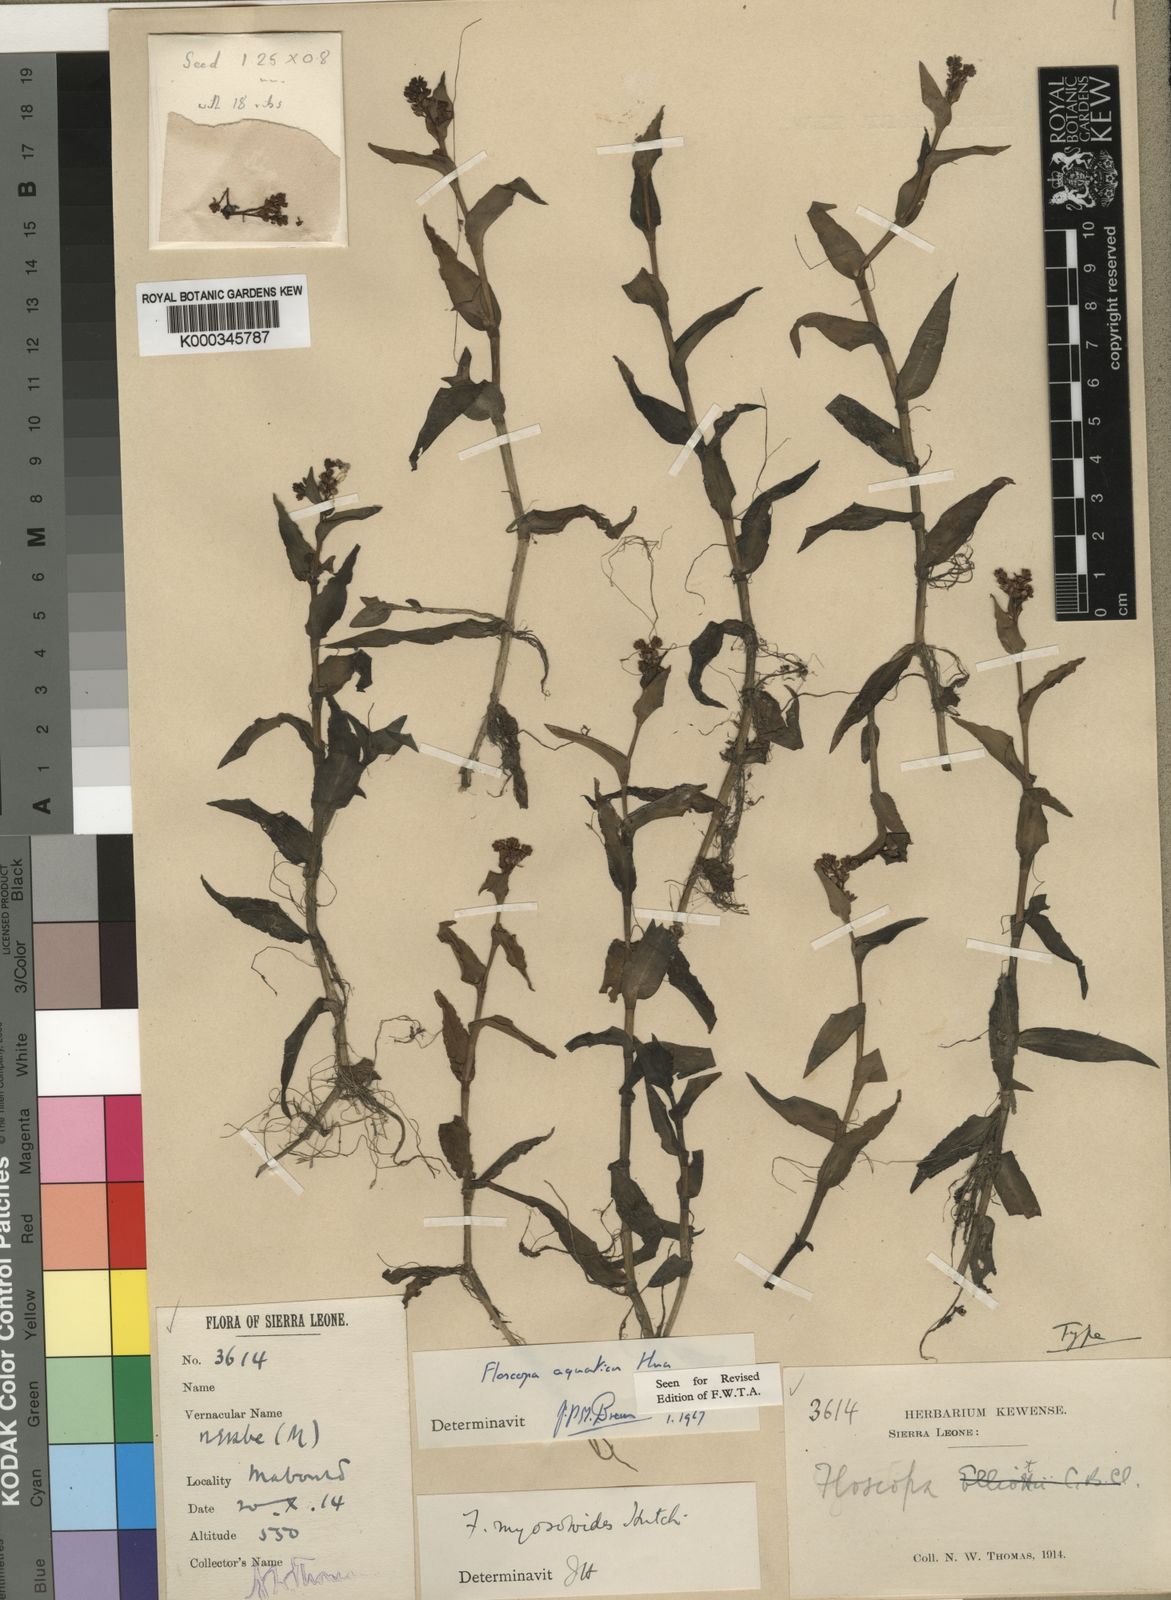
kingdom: Plantae
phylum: Tracheophyta
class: Liliopsida
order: Commelinales
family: Commelinaceae
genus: Floscopa
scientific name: Floscopa aquatica
